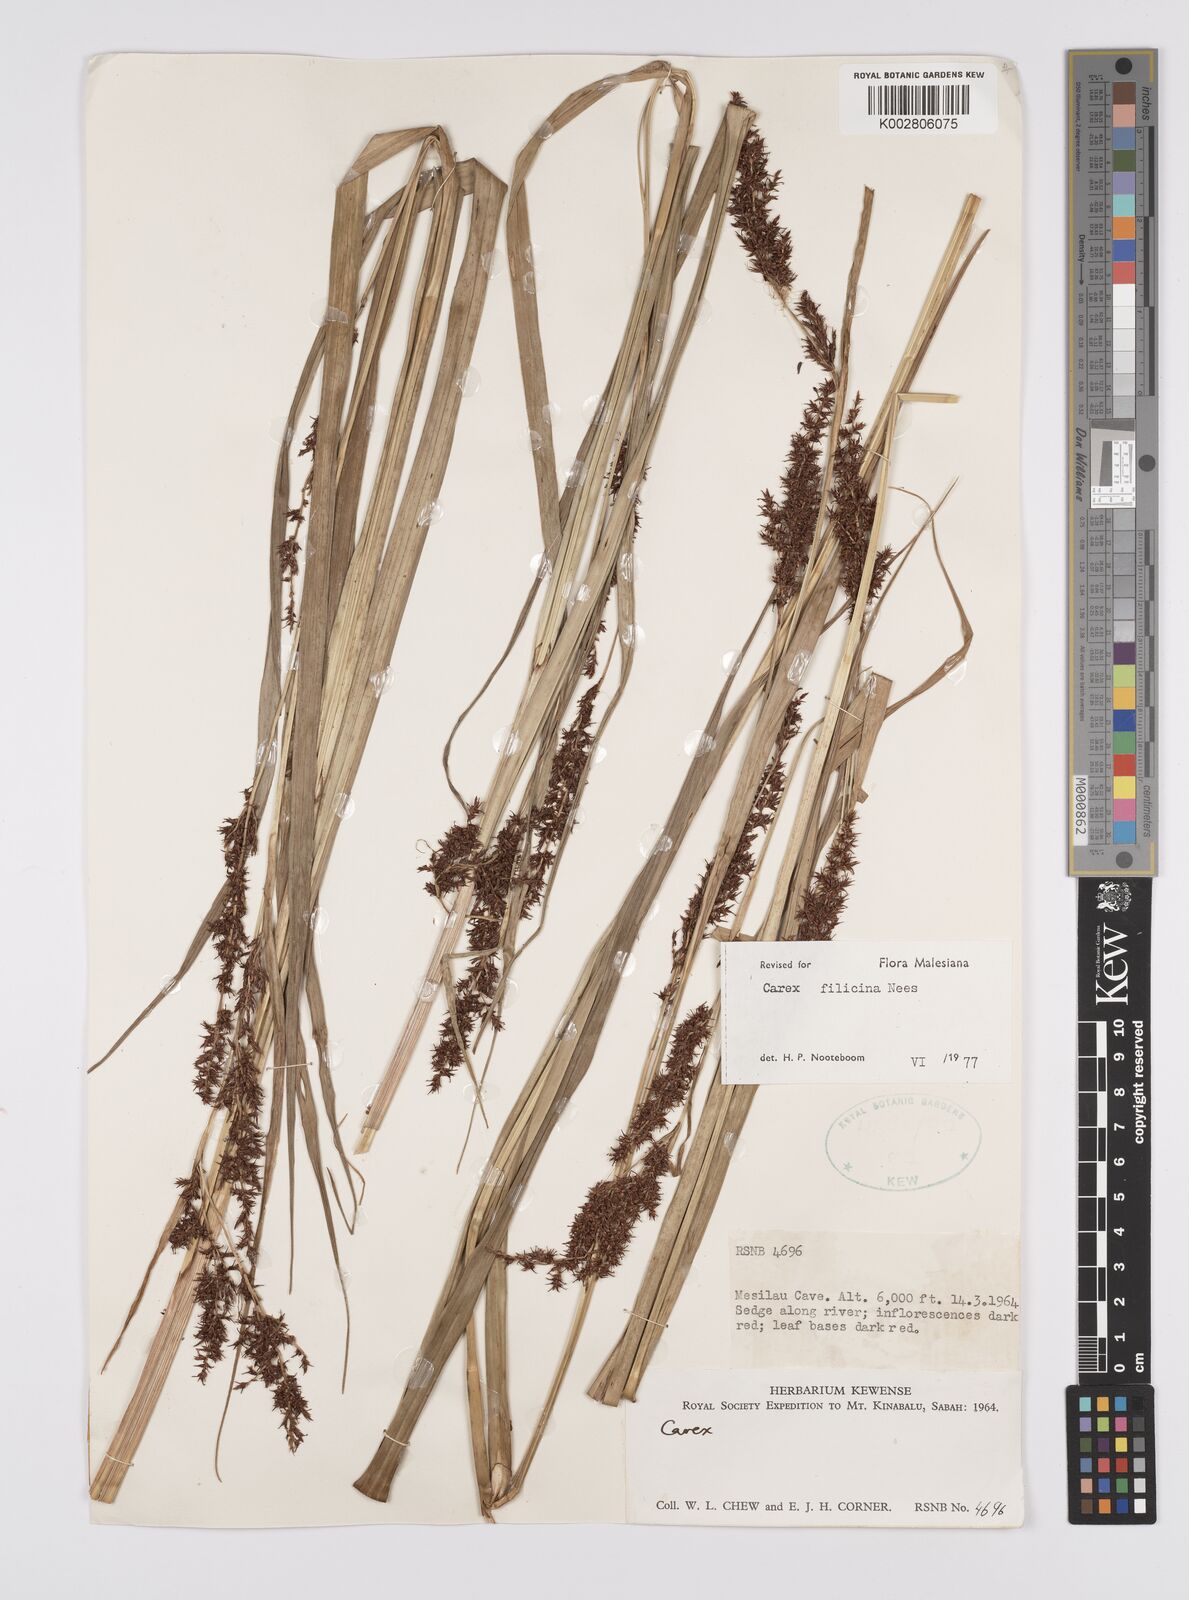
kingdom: Plantae
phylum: Tracheophyta
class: Liliopsida
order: Poales
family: Cyperaceae
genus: Carex
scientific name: Carex filicina
